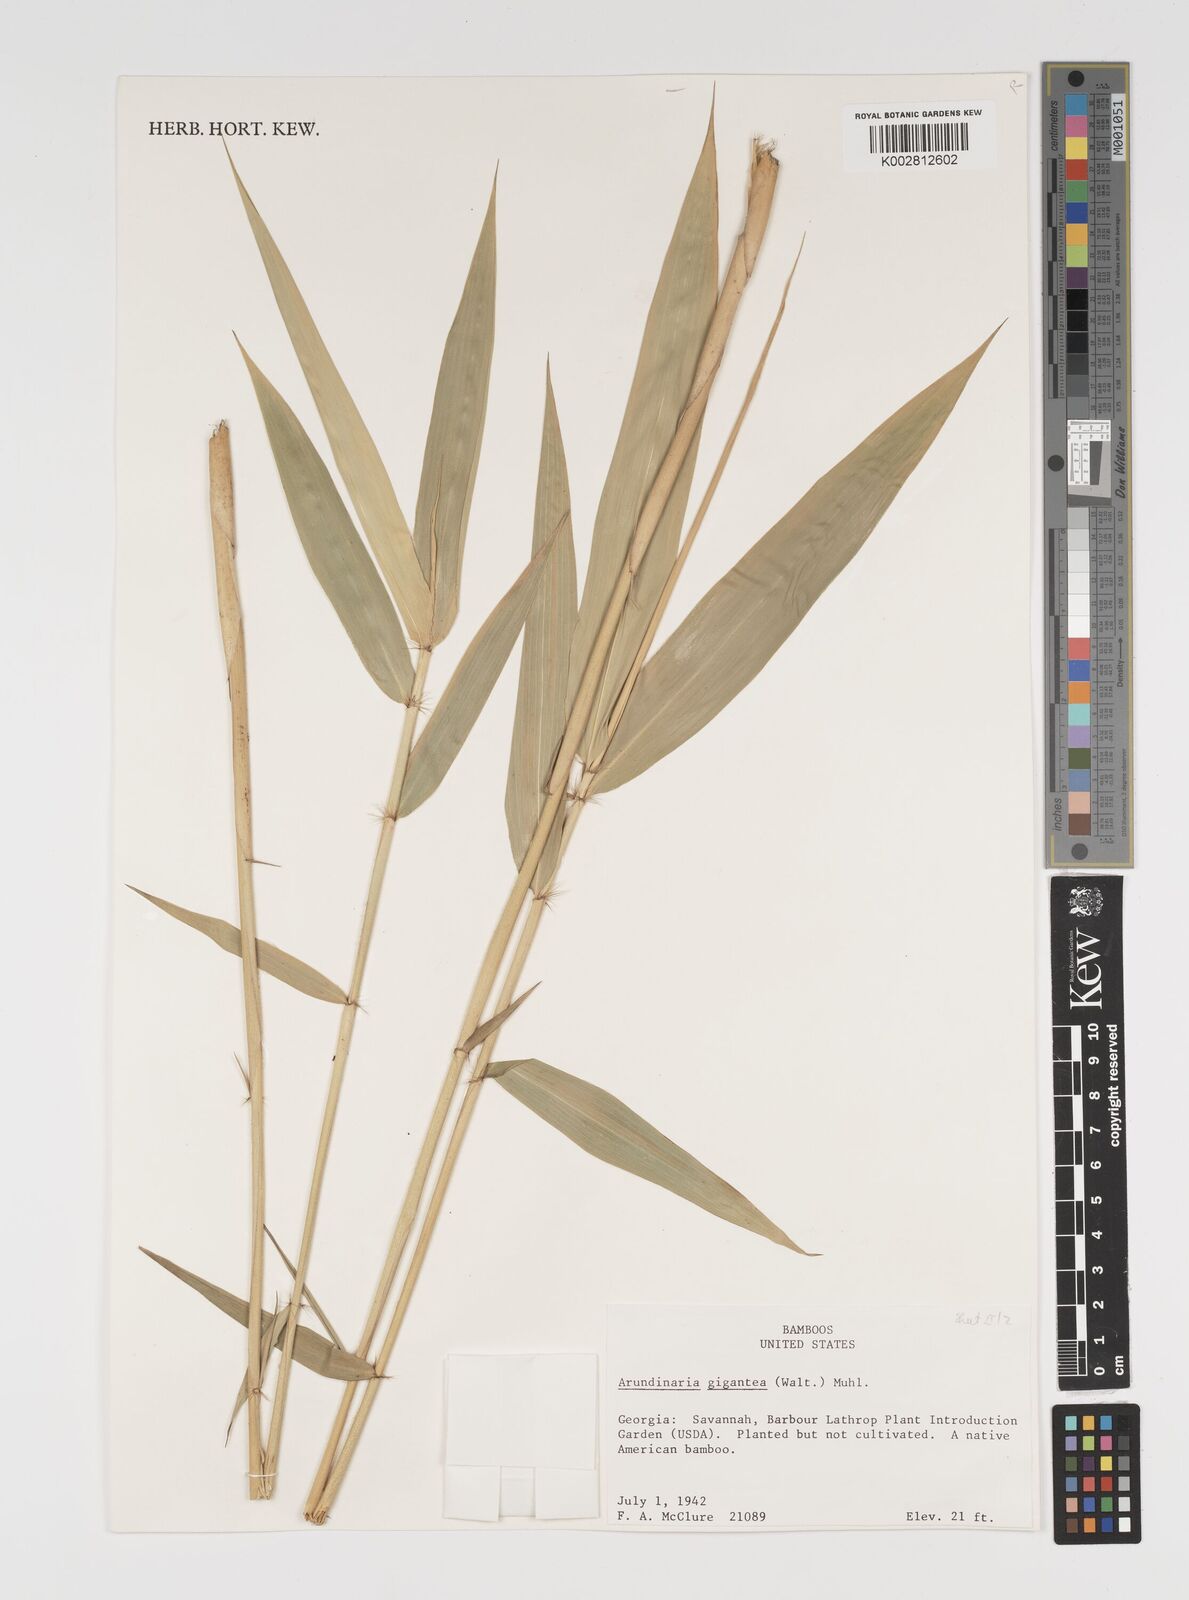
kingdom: Plantae
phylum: Tracheophyta
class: Liliopsida
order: Poales
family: Poaceae
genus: Arundinaria
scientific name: Arundinaria gigantea
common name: Giant cane
